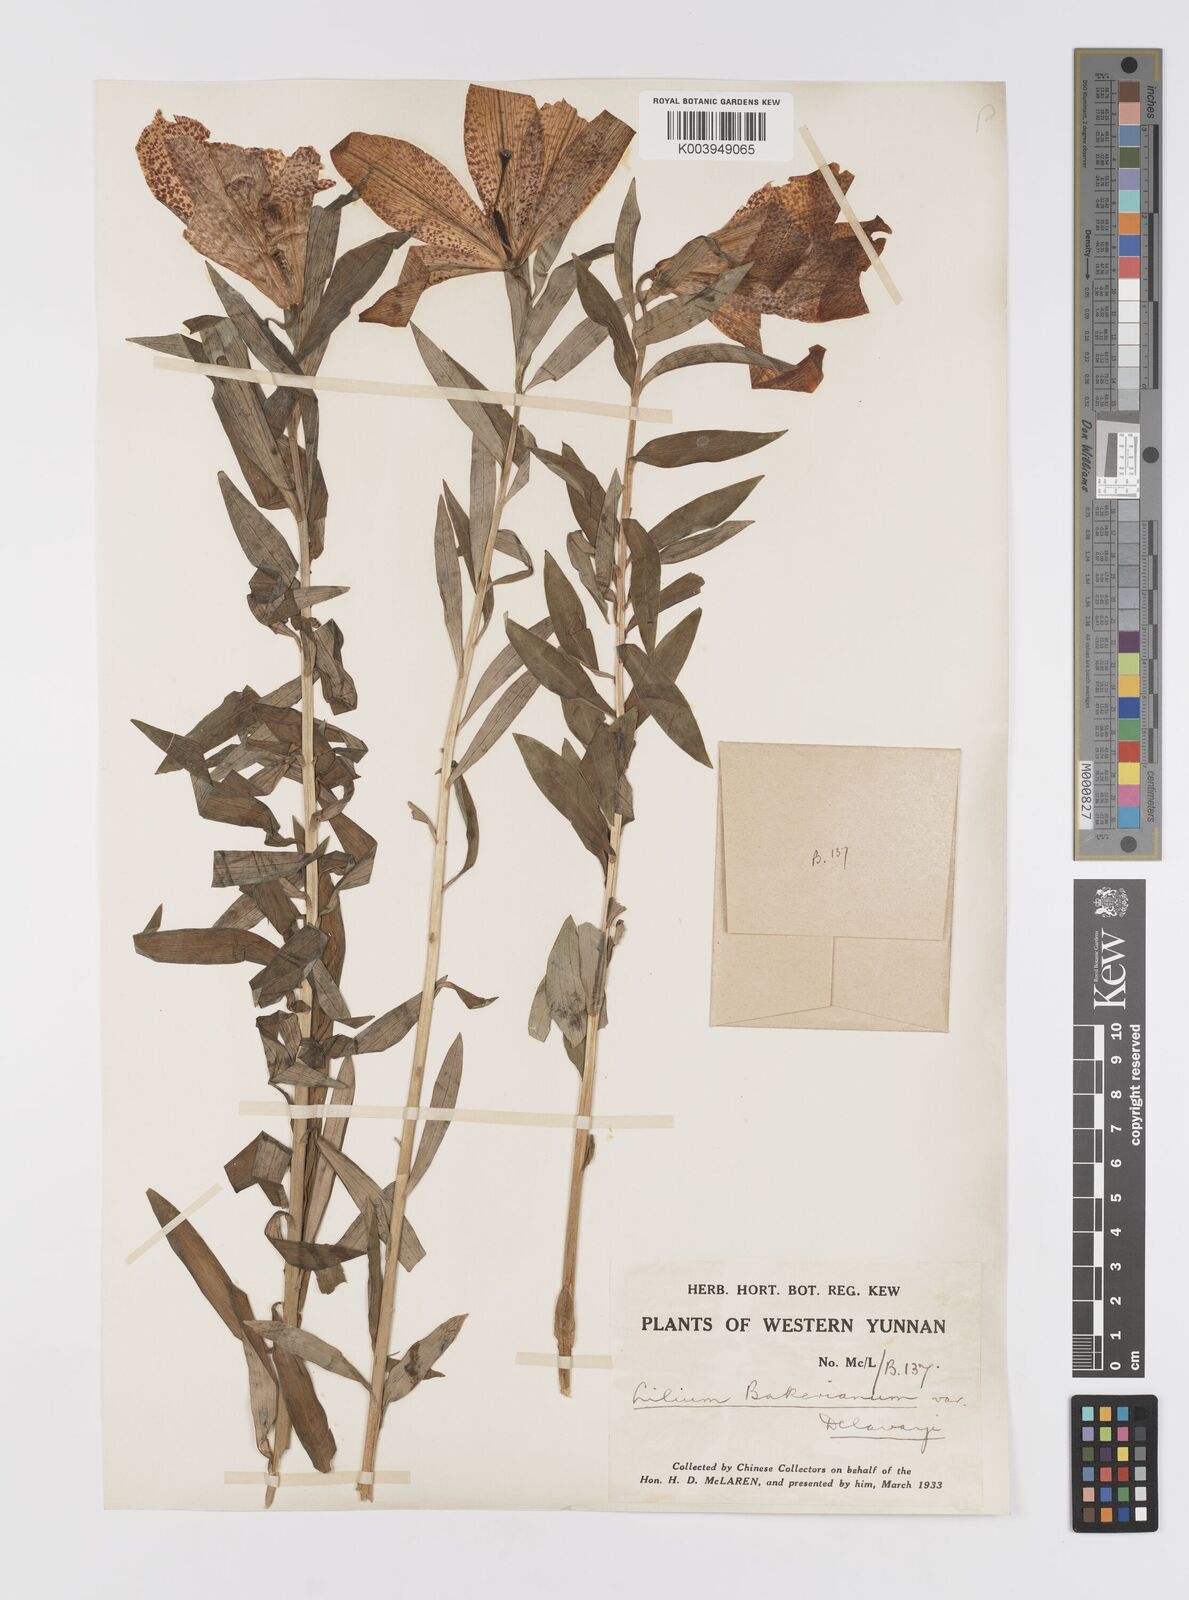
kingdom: Plantae
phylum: Tracheophyta
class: Liliopsida
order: Liliales
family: Liliaceae
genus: Lilium
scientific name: Lilium bakerianum
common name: Baker's lily
